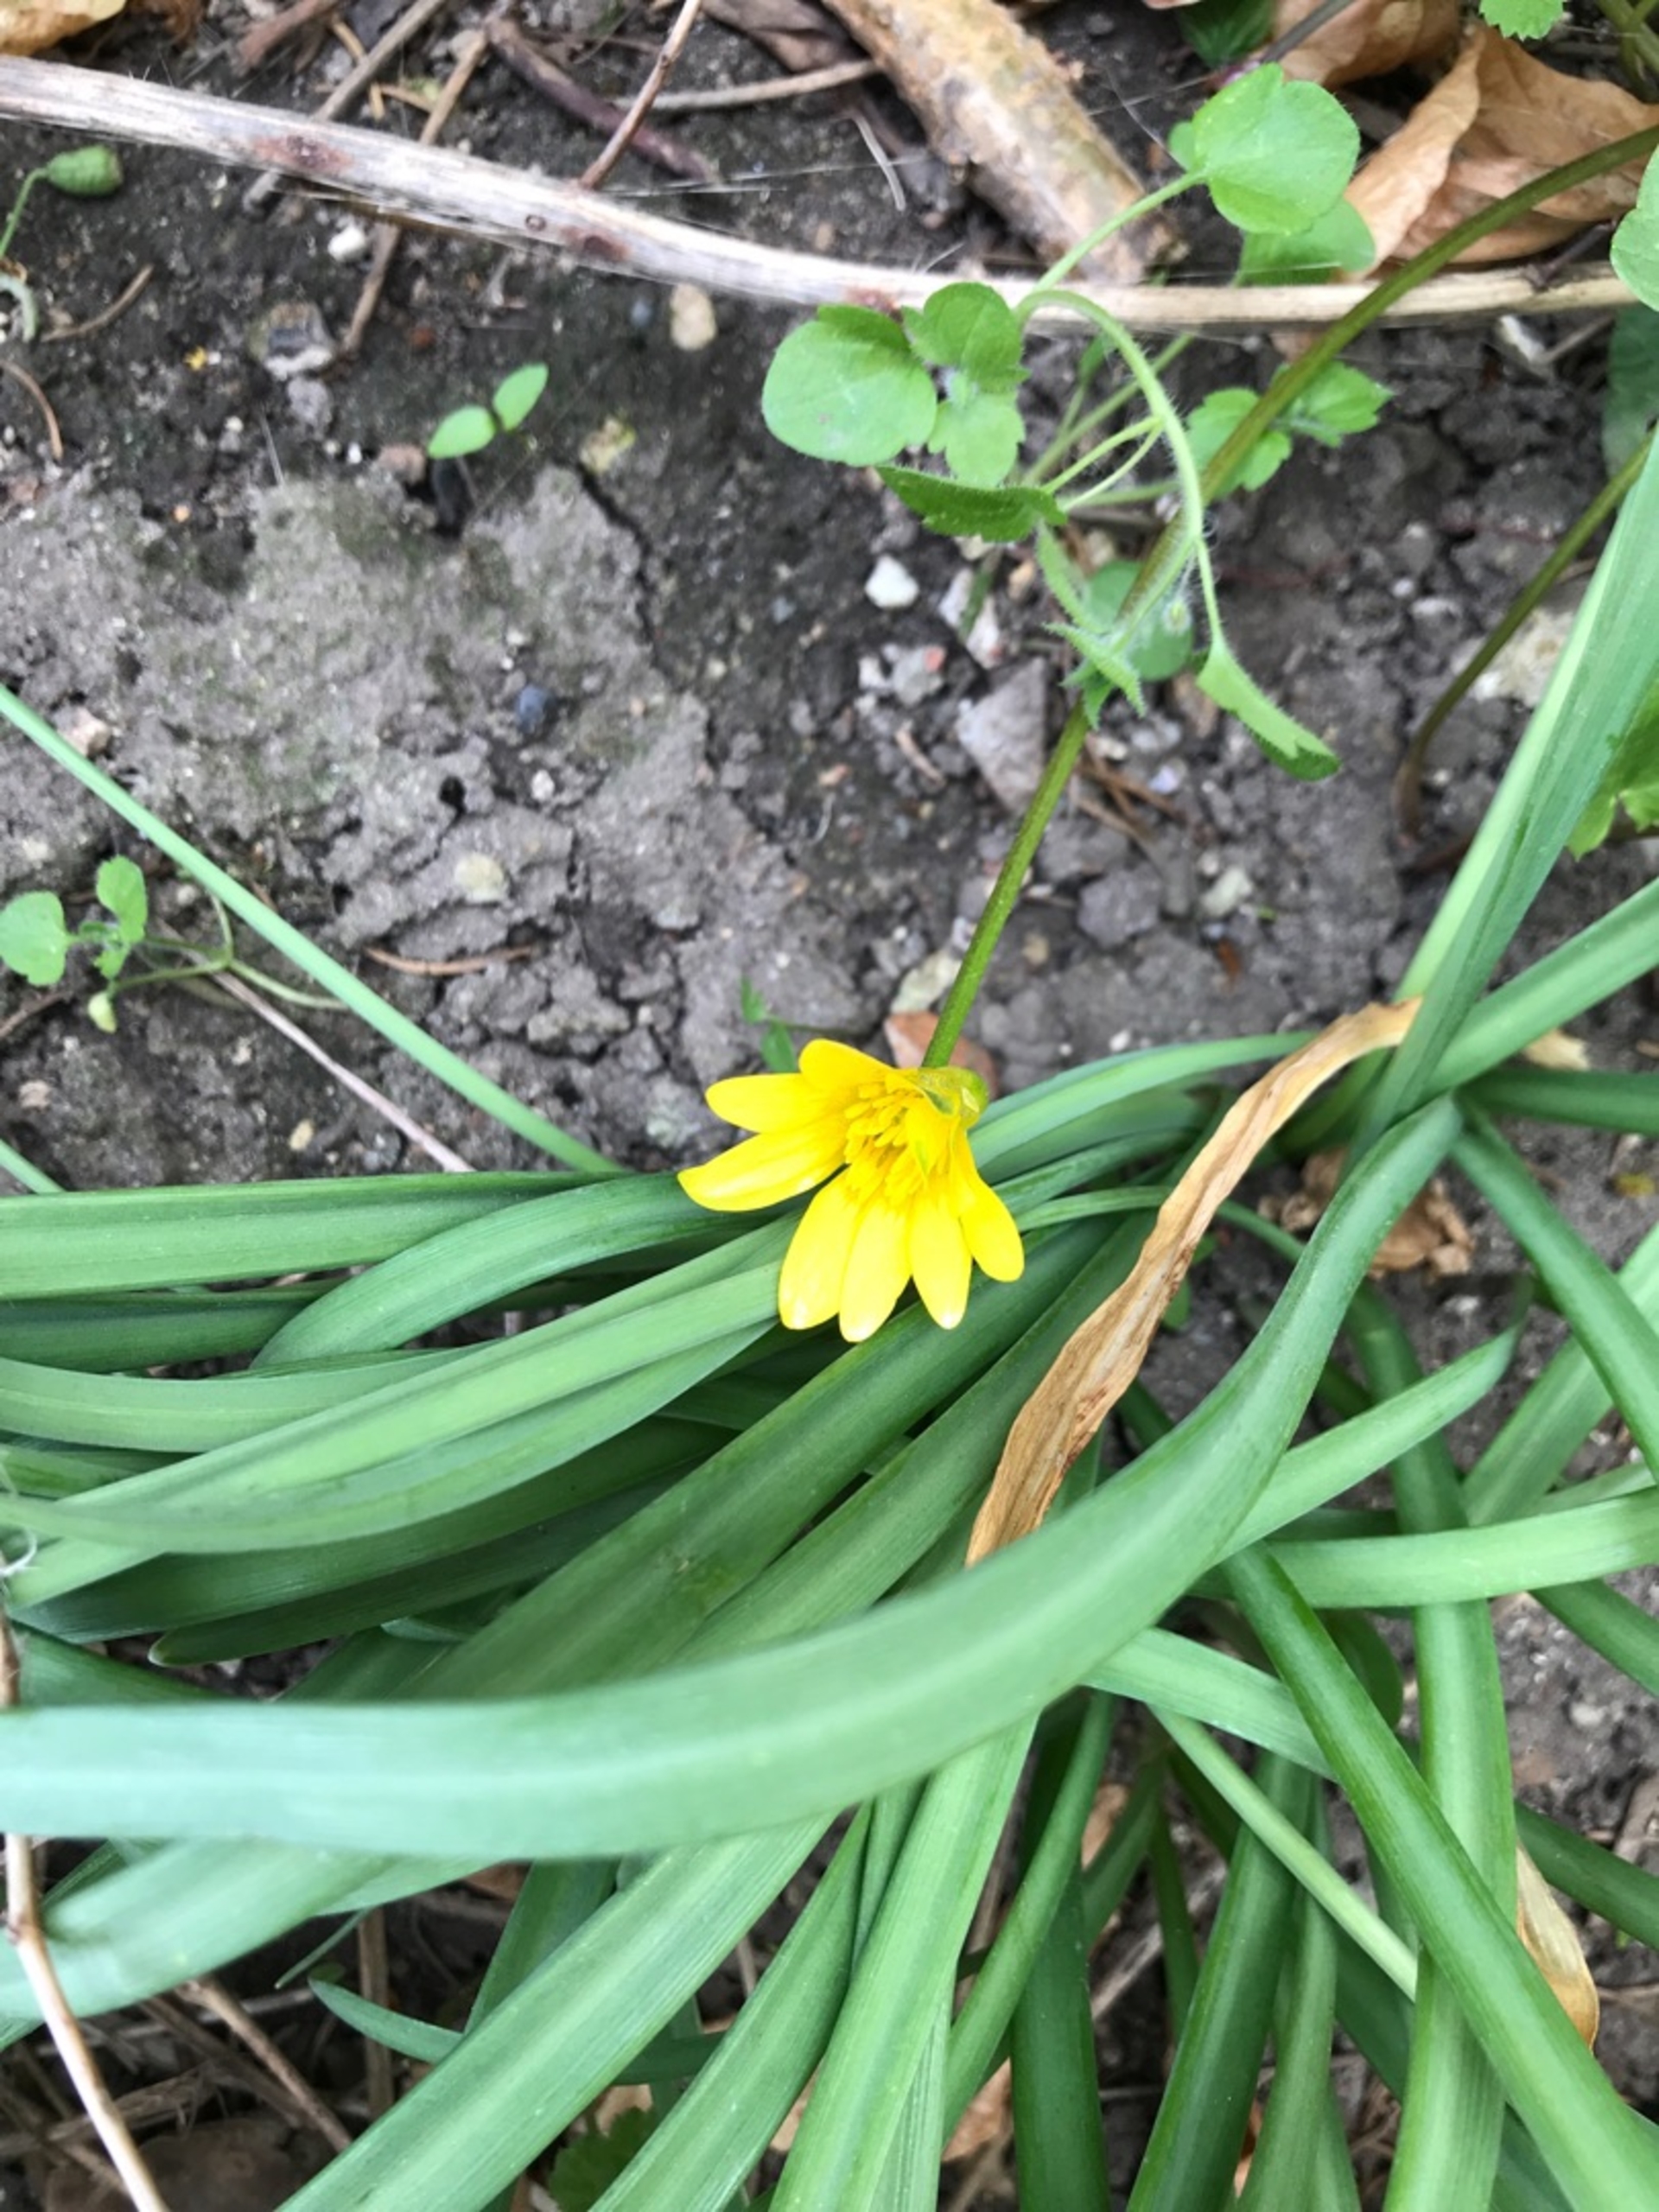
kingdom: Plantae
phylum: Tracheophyta
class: Magnoliopsida
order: Ranunculales
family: Ranunculaceae
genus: Ficaria
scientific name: Ficaria verna
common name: Vorterod
